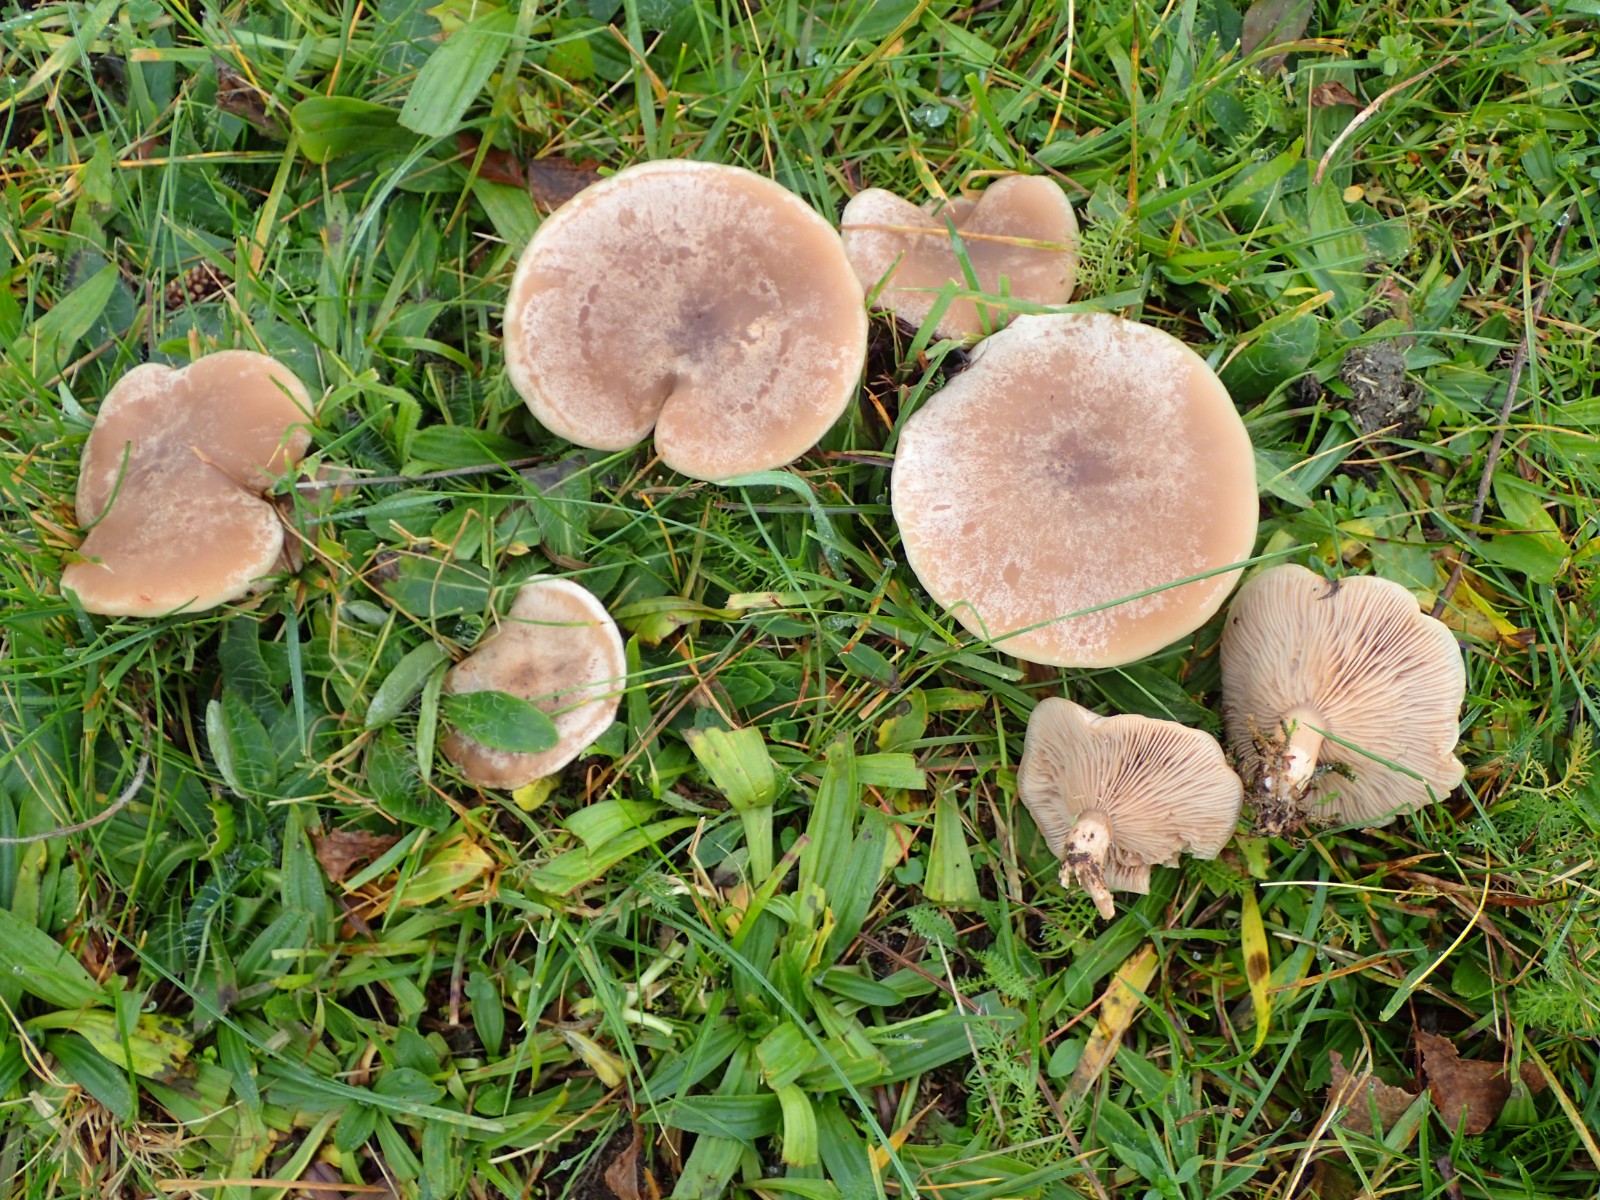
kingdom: Fungi
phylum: Basidiomycota
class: Agaricomycetes
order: Agaricales
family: Tricholomataceae
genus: Lepista
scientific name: Lepista panaeolus
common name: marmoreret hekseringshat
